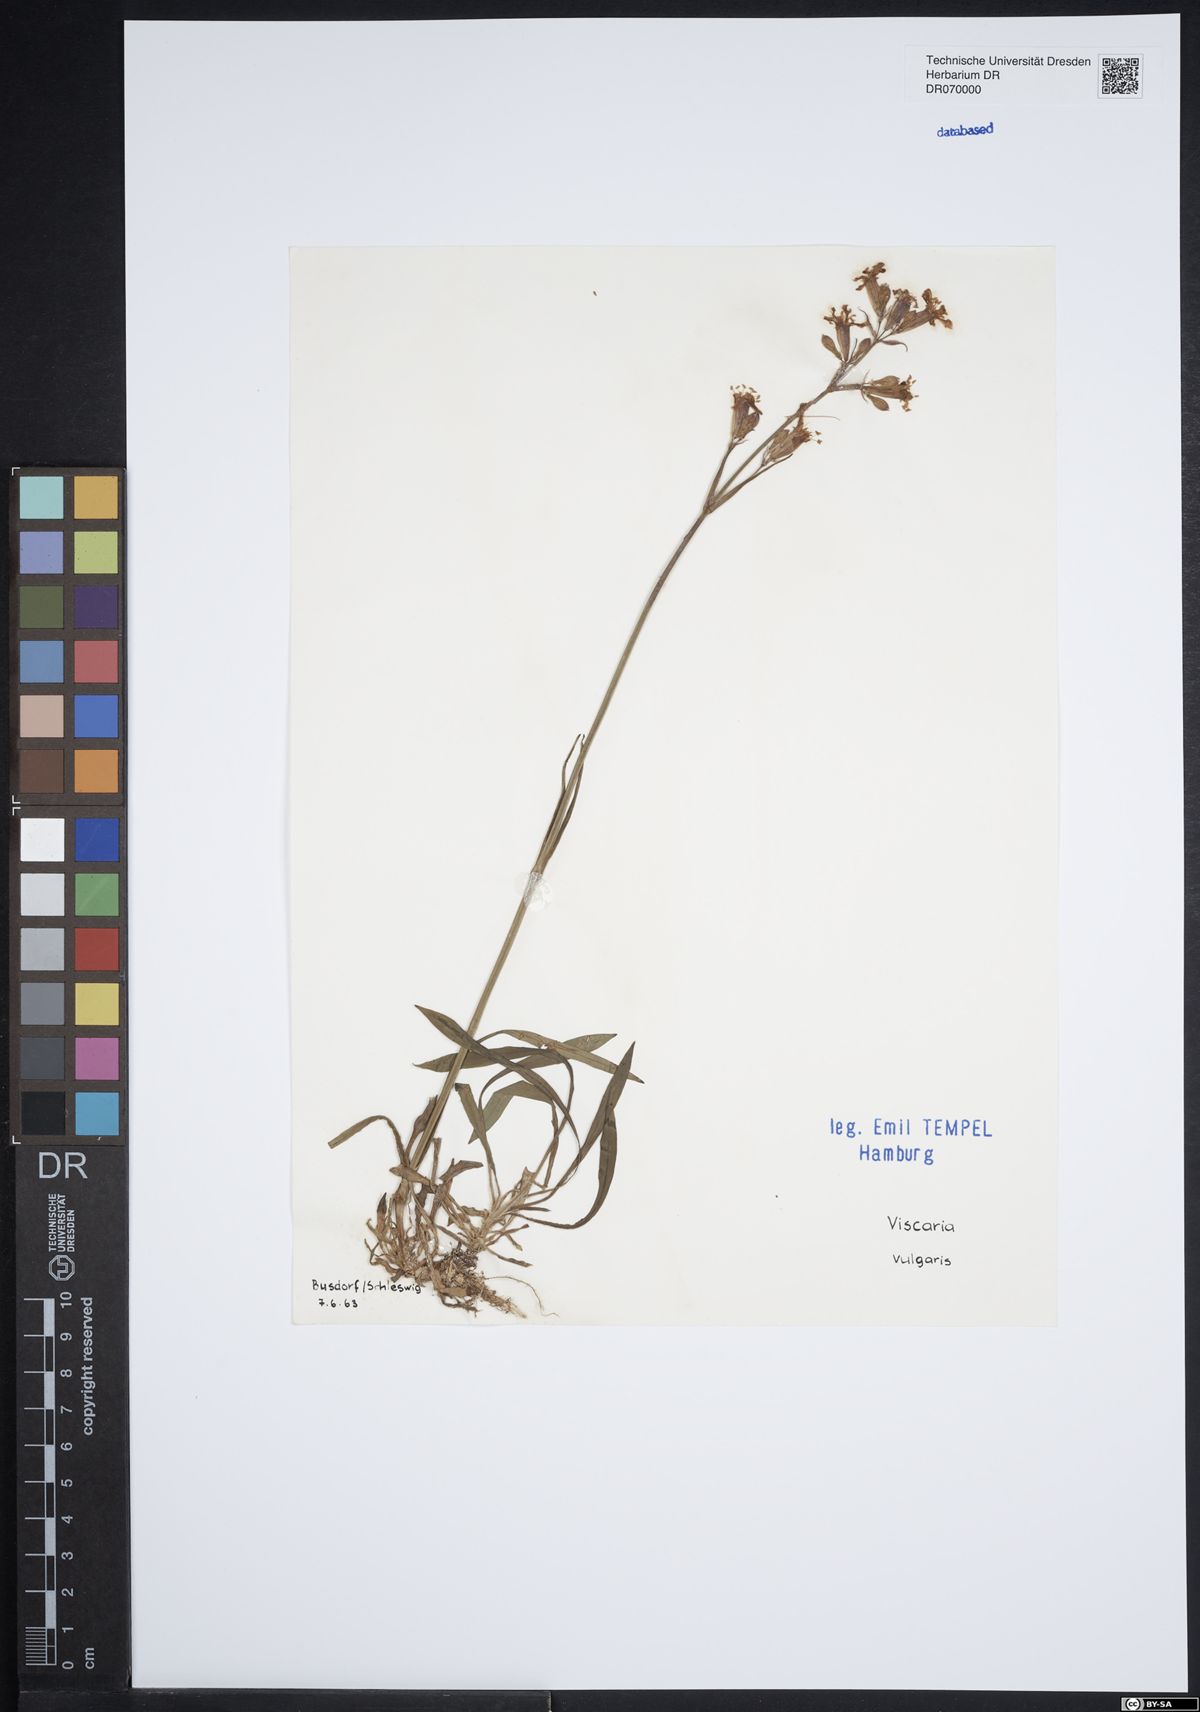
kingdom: Plantae
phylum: Tracheophyta
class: Magnoliopsida
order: Caryophyllales
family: Caryophyllaceae
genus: Viscaria
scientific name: Viscaria vulgaris
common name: Clammy campion
